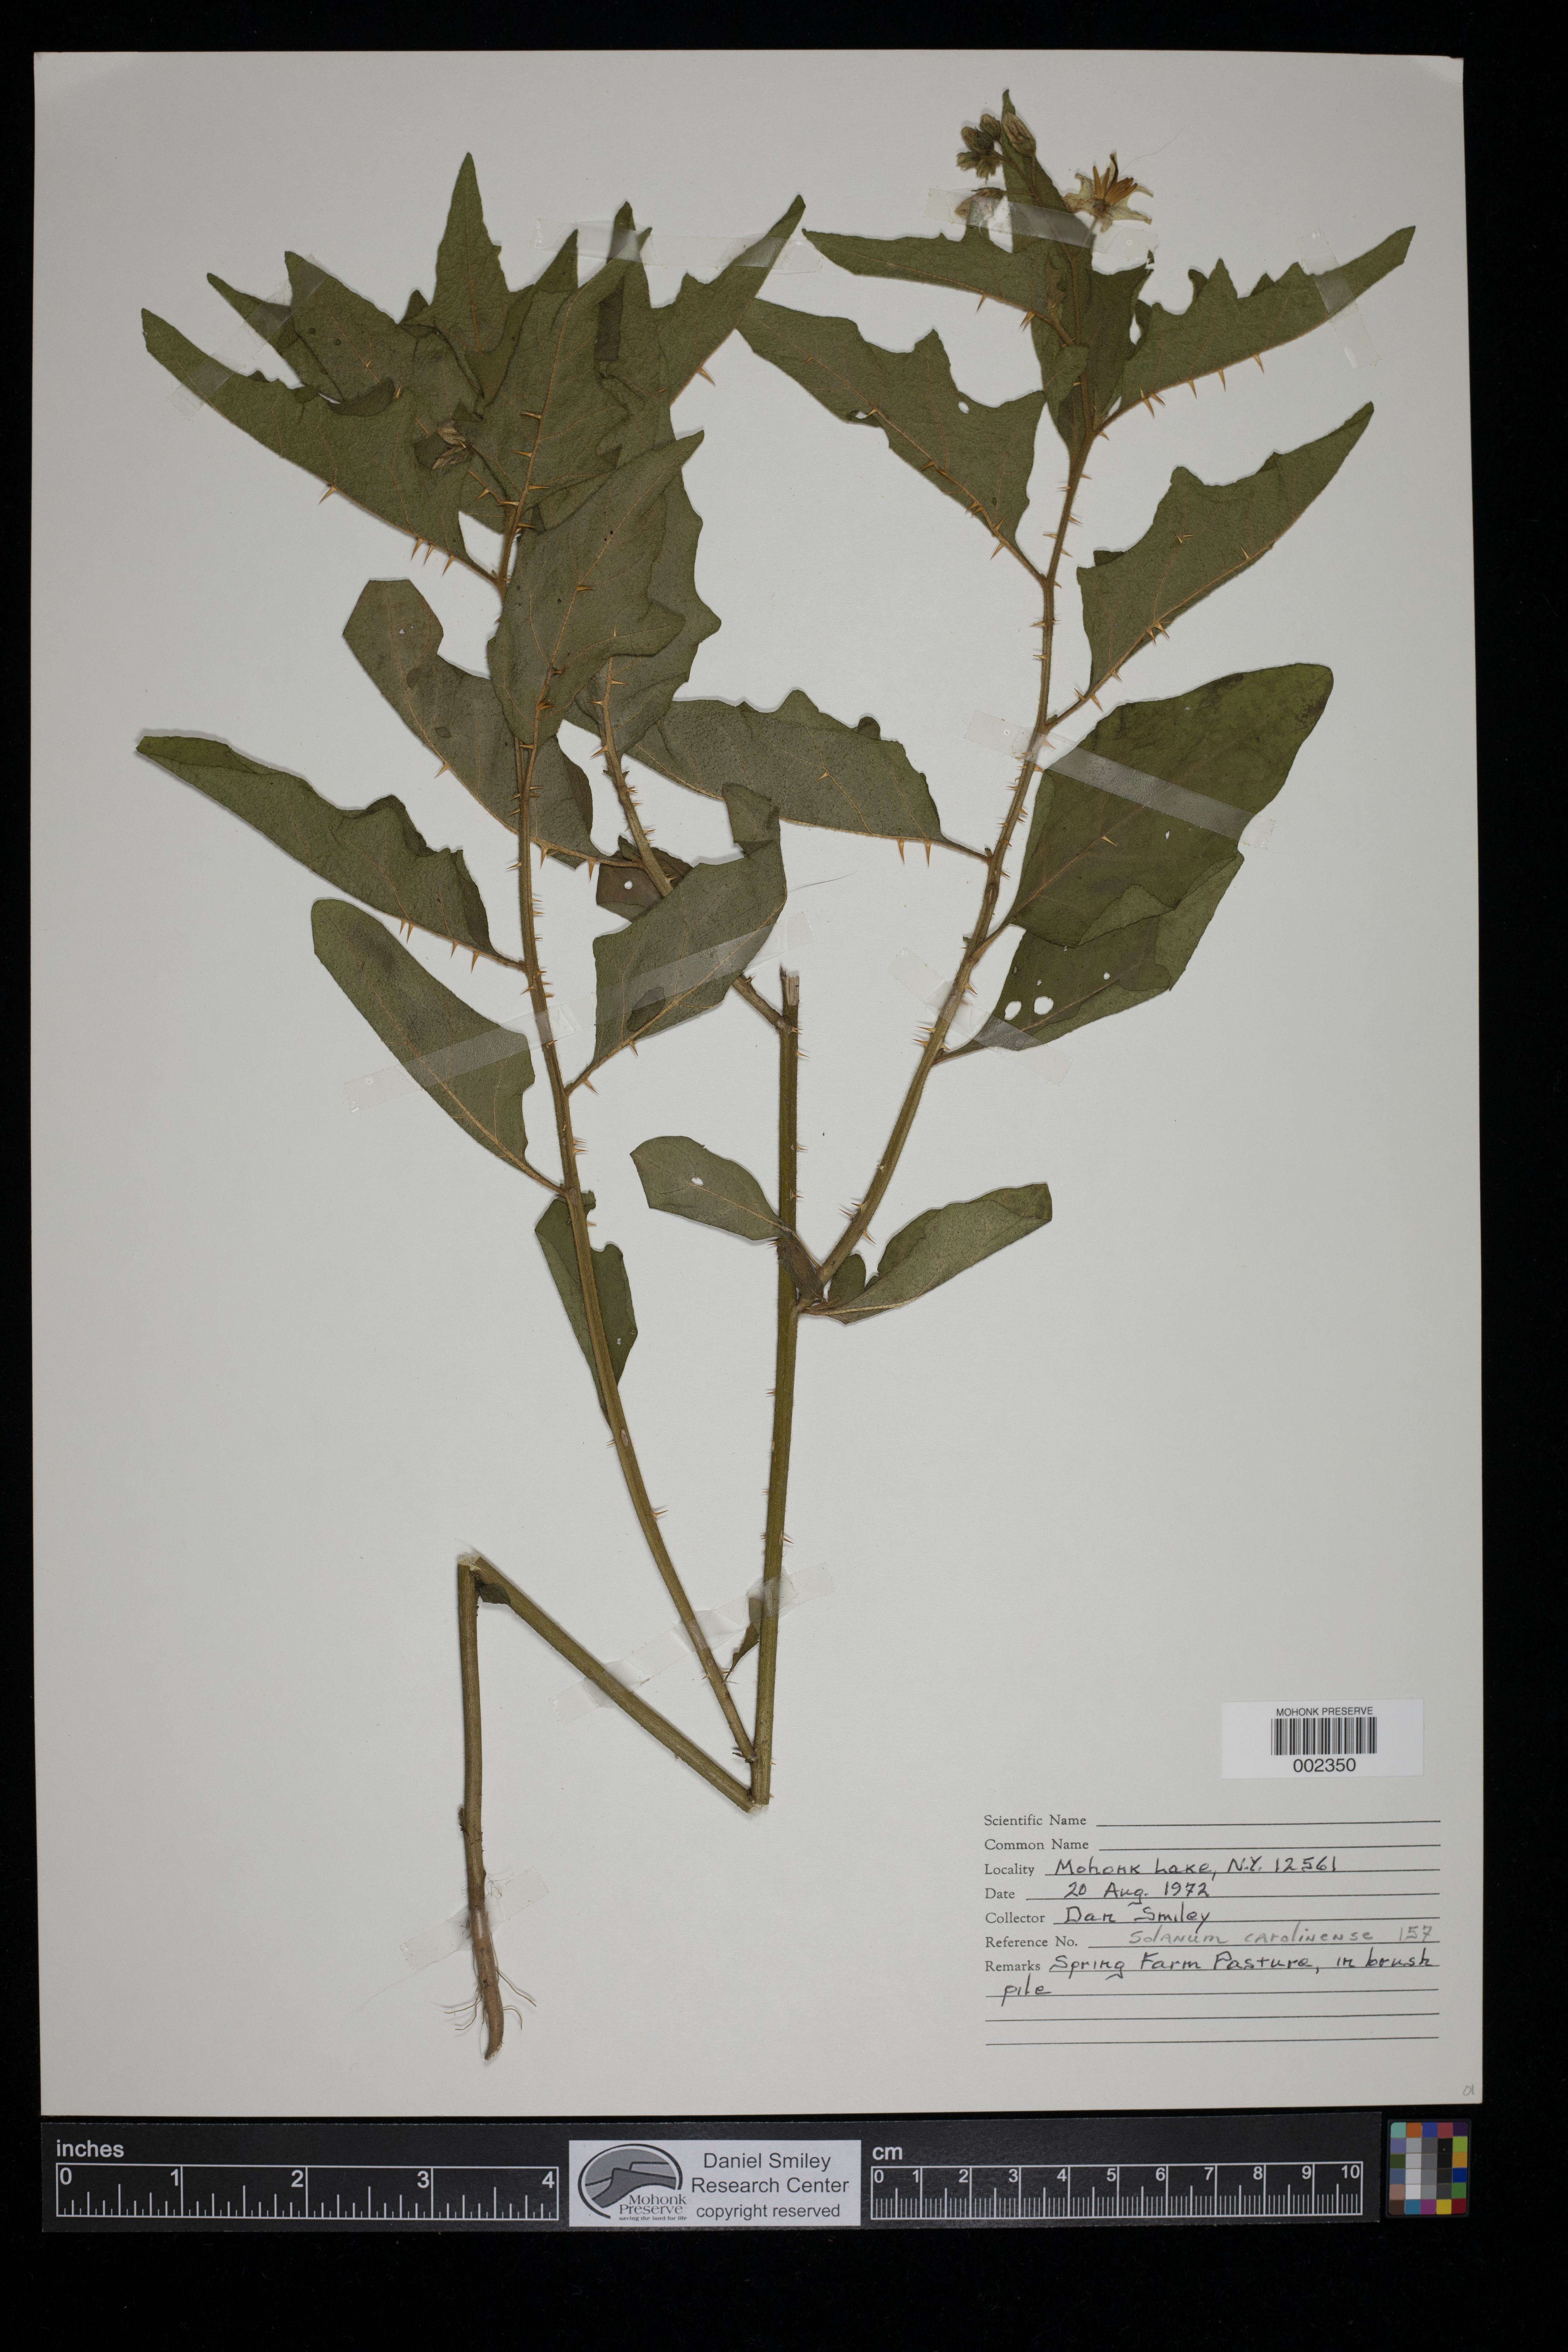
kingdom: Plantae
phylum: Tracheophyta
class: Magnoliopsida
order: Solanales
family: Solanaceae
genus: Solanum
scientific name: Solanum carolinense
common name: Horse-nettle
